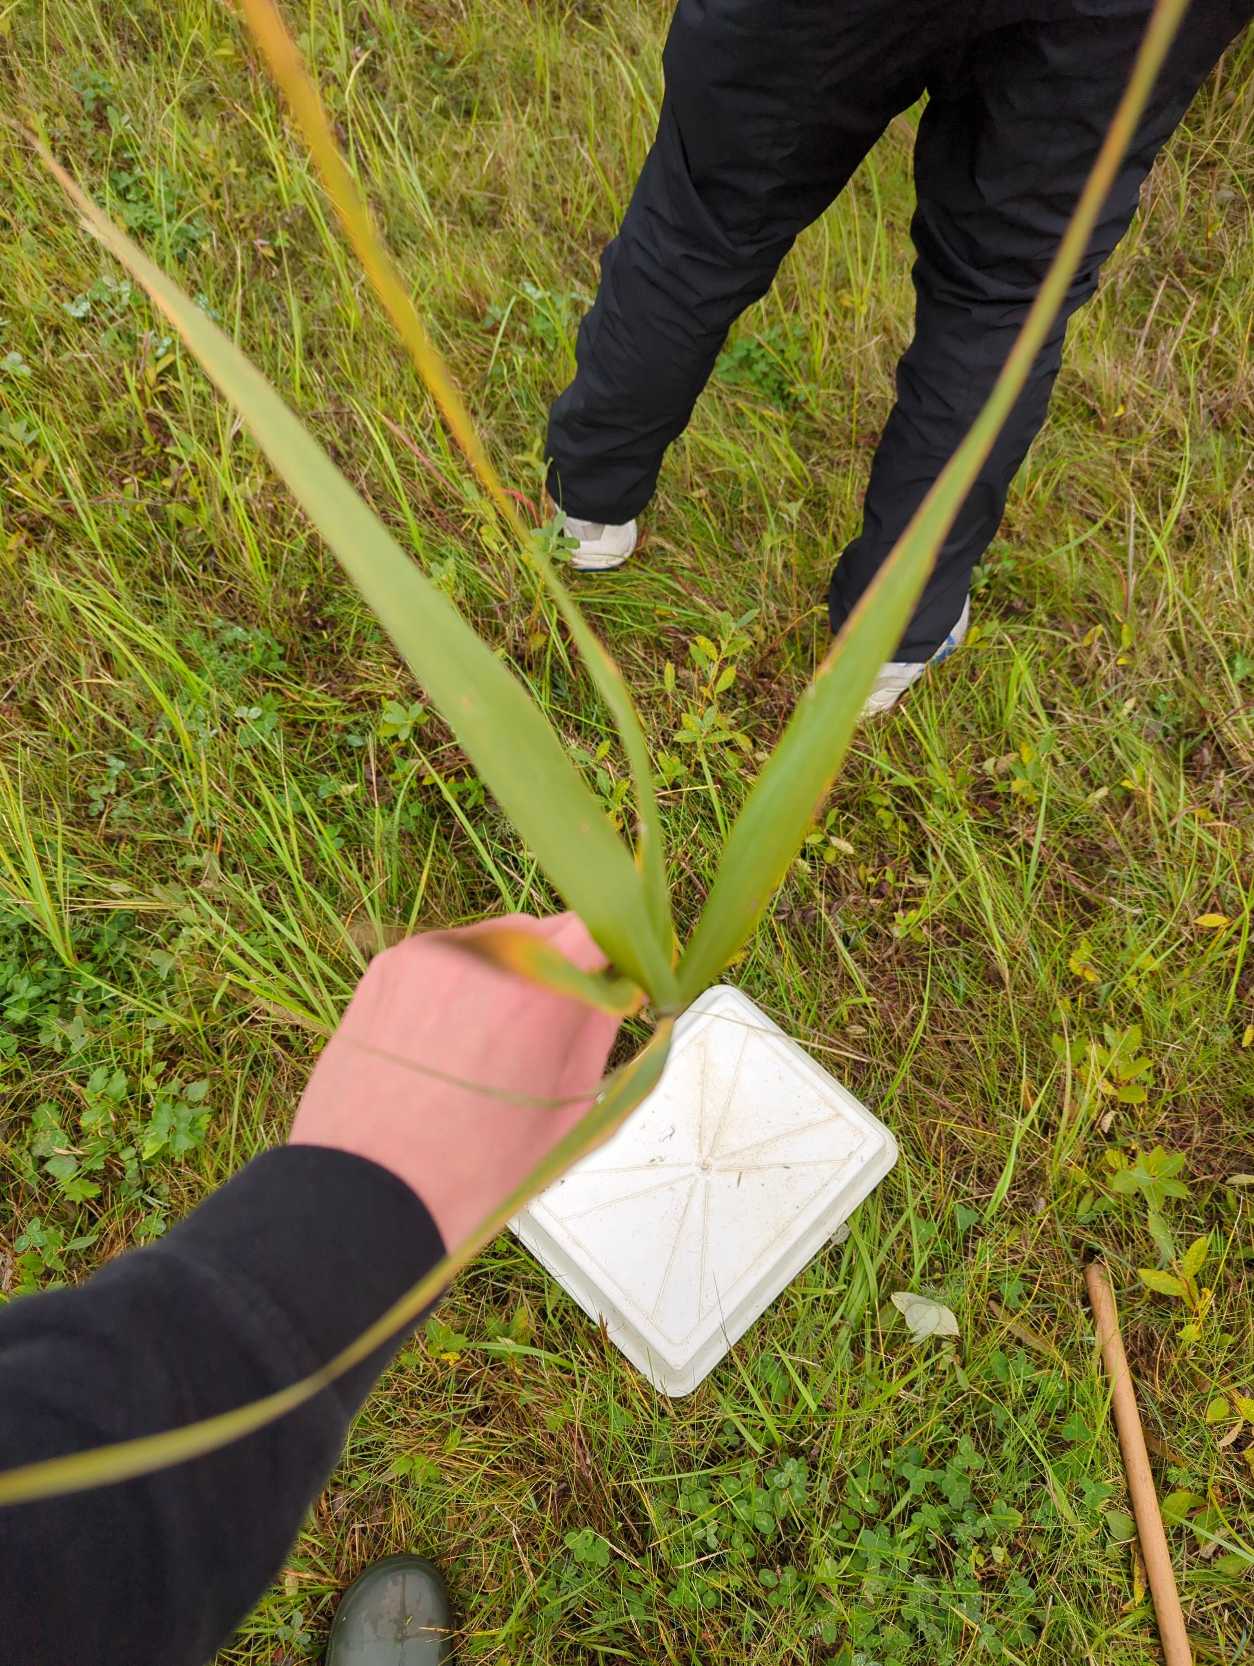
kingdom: Plantae
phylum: Tracheophyta
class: Liliopsida
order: Poales
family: Poaceae
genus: Phragmites
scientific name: Phragmites australis
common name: Tagrør
